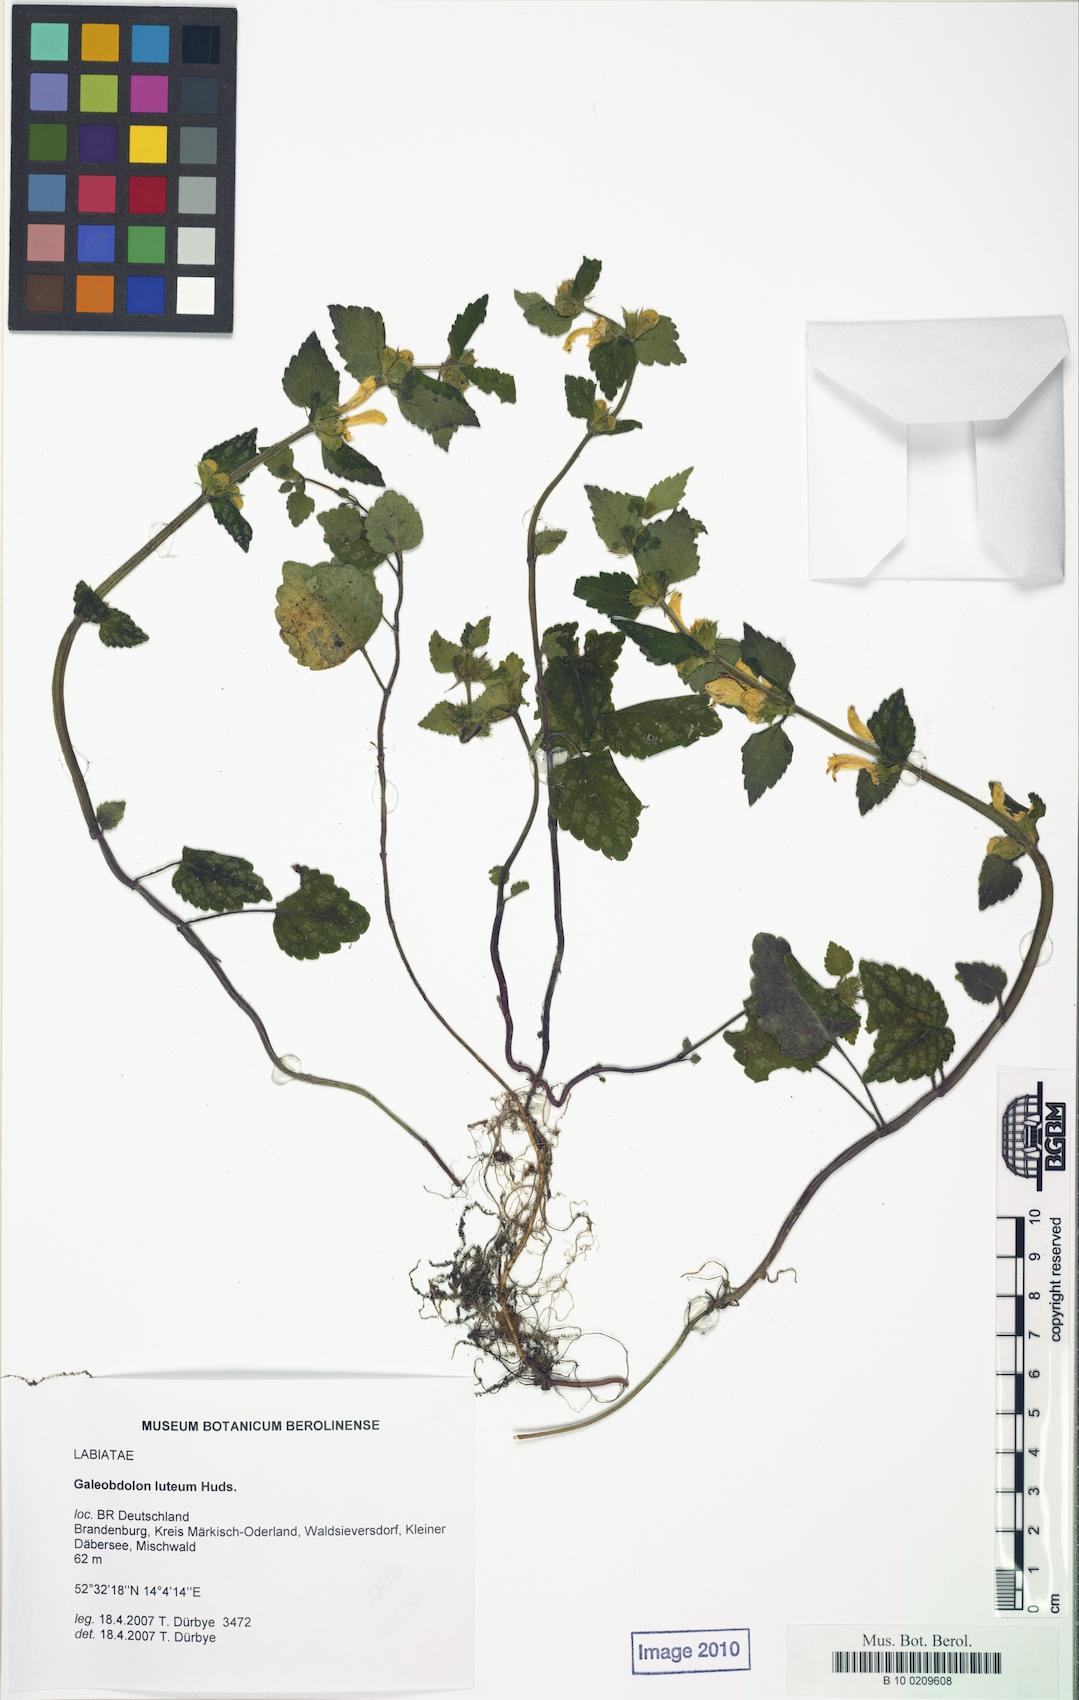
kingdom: Plantae
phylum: Tracheophyta
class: Magnoliopsida
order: Lamiales
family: Lamiaceae
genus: Lamium
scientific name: Lamium galeobdolon
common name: Yellow archangel
